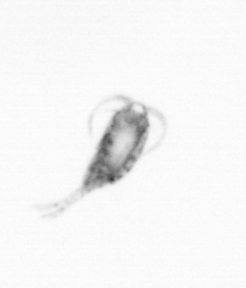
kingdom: Animalia
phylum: Arthropoda
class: Copepoda
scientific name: Copepoda
